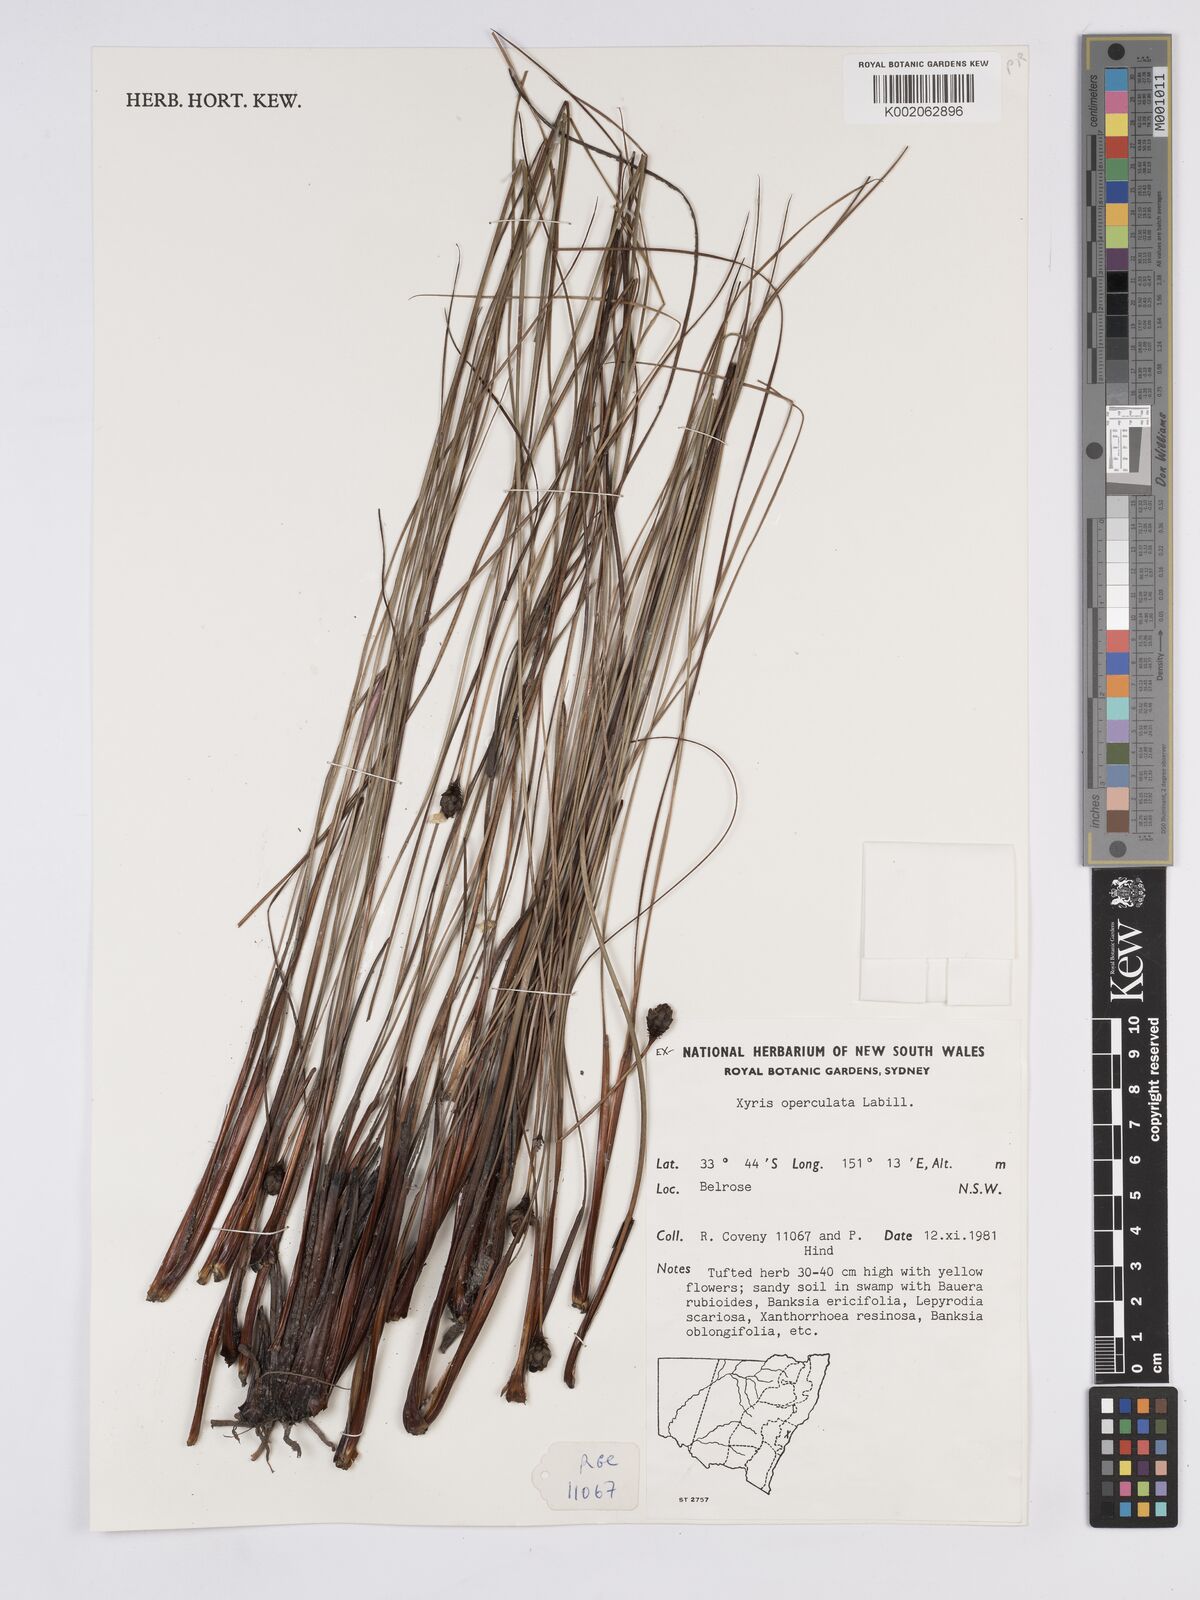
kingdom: Plantae
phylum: Tracheophyta
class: Liliopsida
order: Poales
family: Xyridaceae
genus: Xyris
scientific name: Xyris operculata
